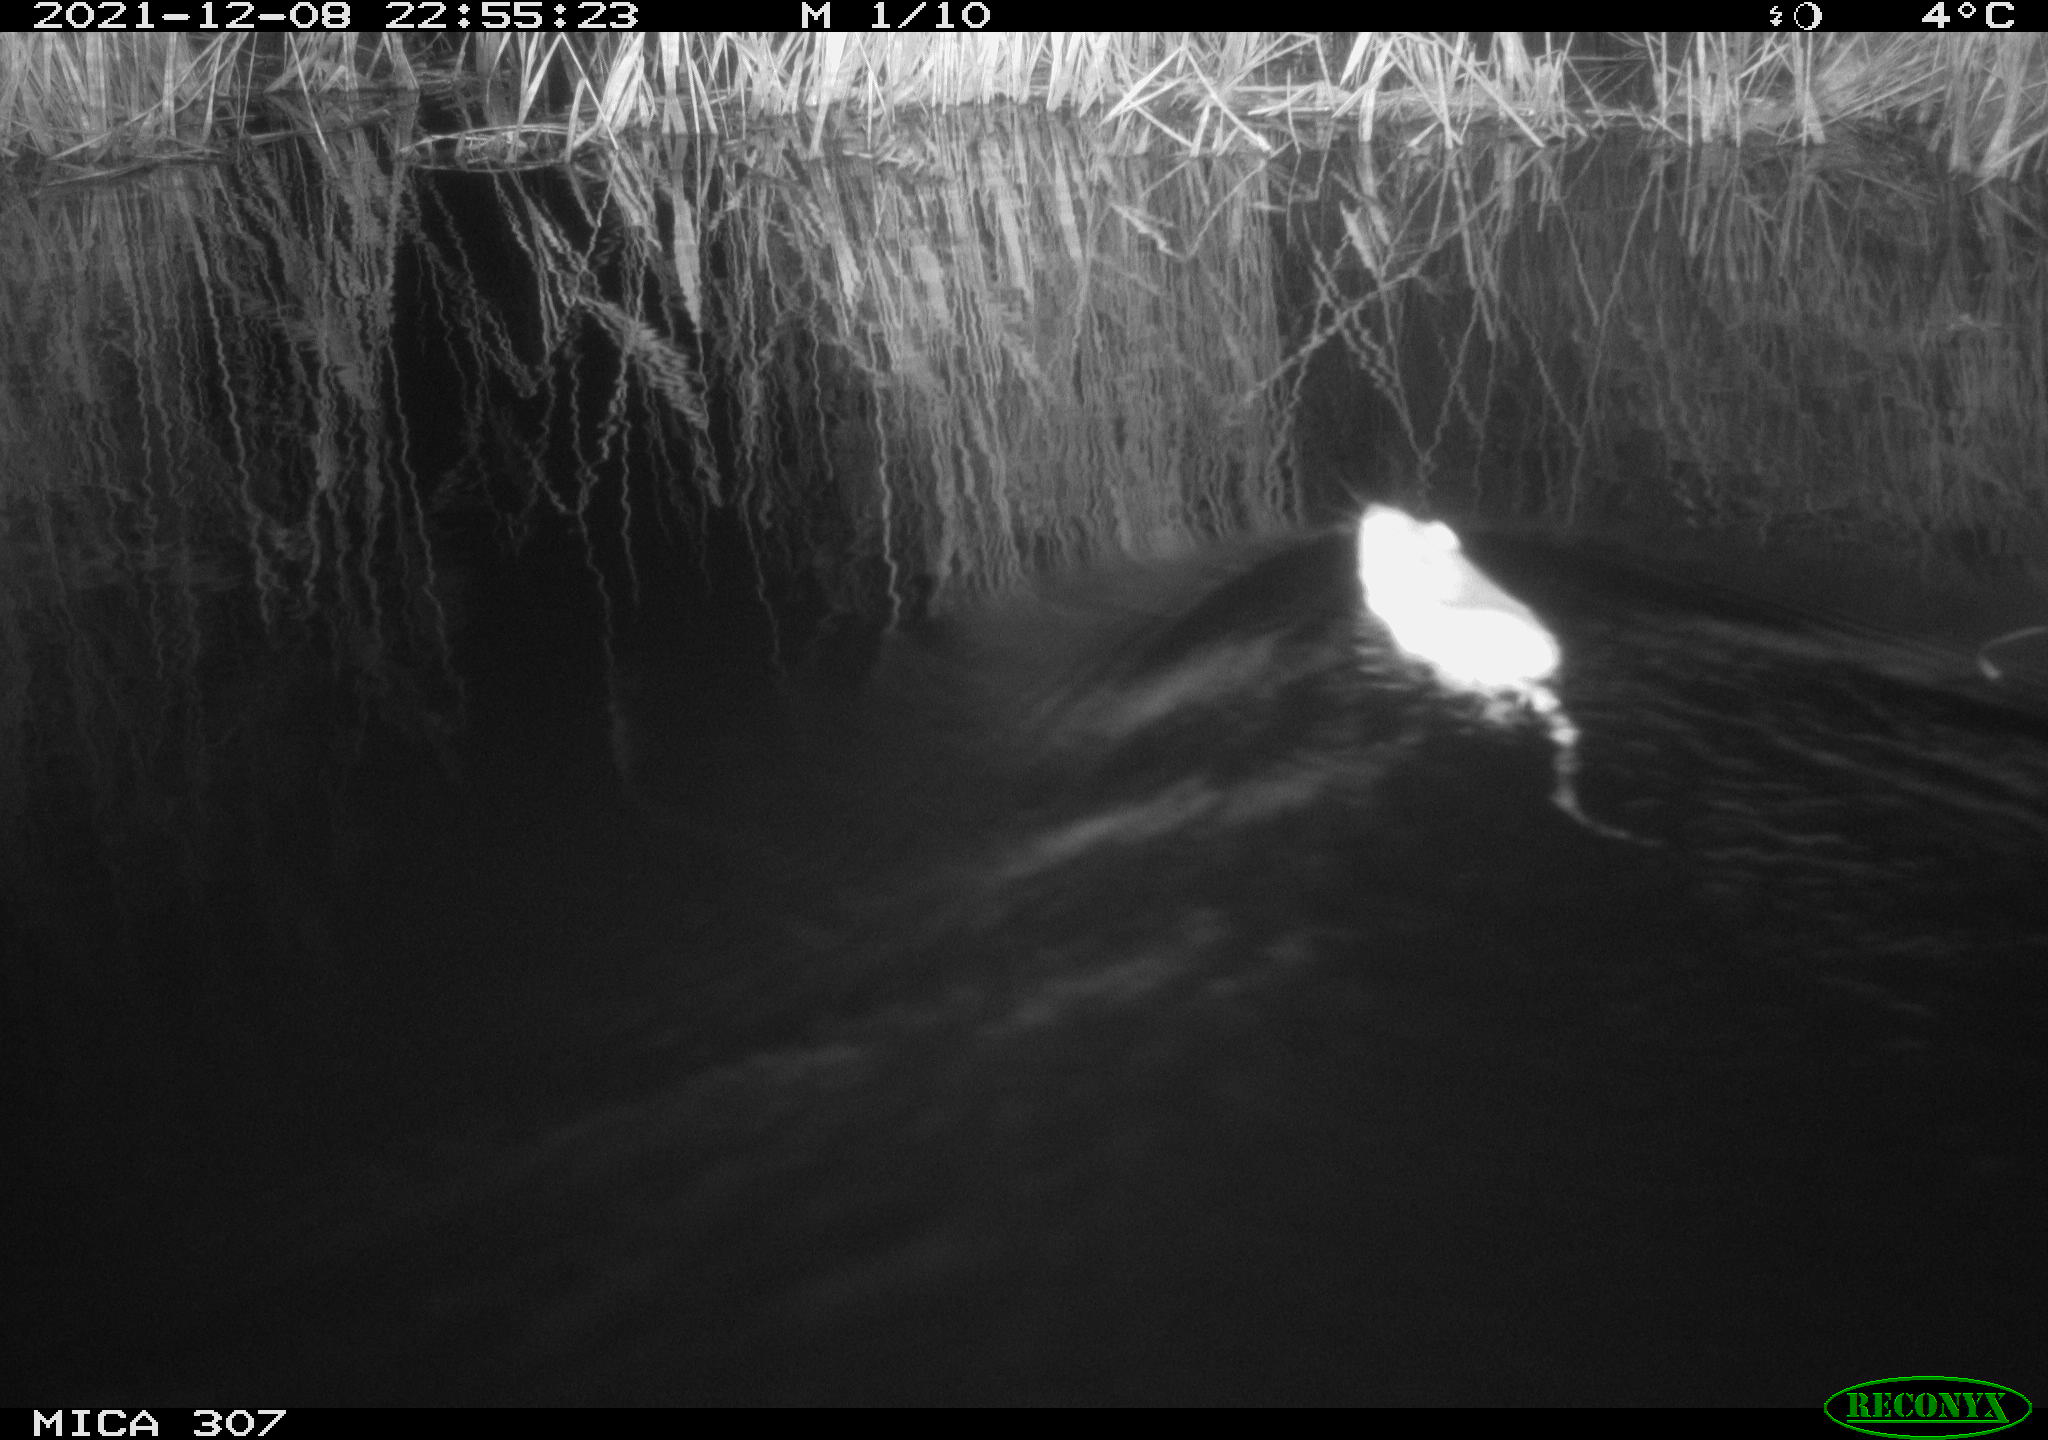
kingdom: Animalia
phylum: Chordata
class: Mammalia
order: Rodentia
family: Muridae
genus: Rattus
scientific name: Rattus norvegicus
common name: Brown rat
